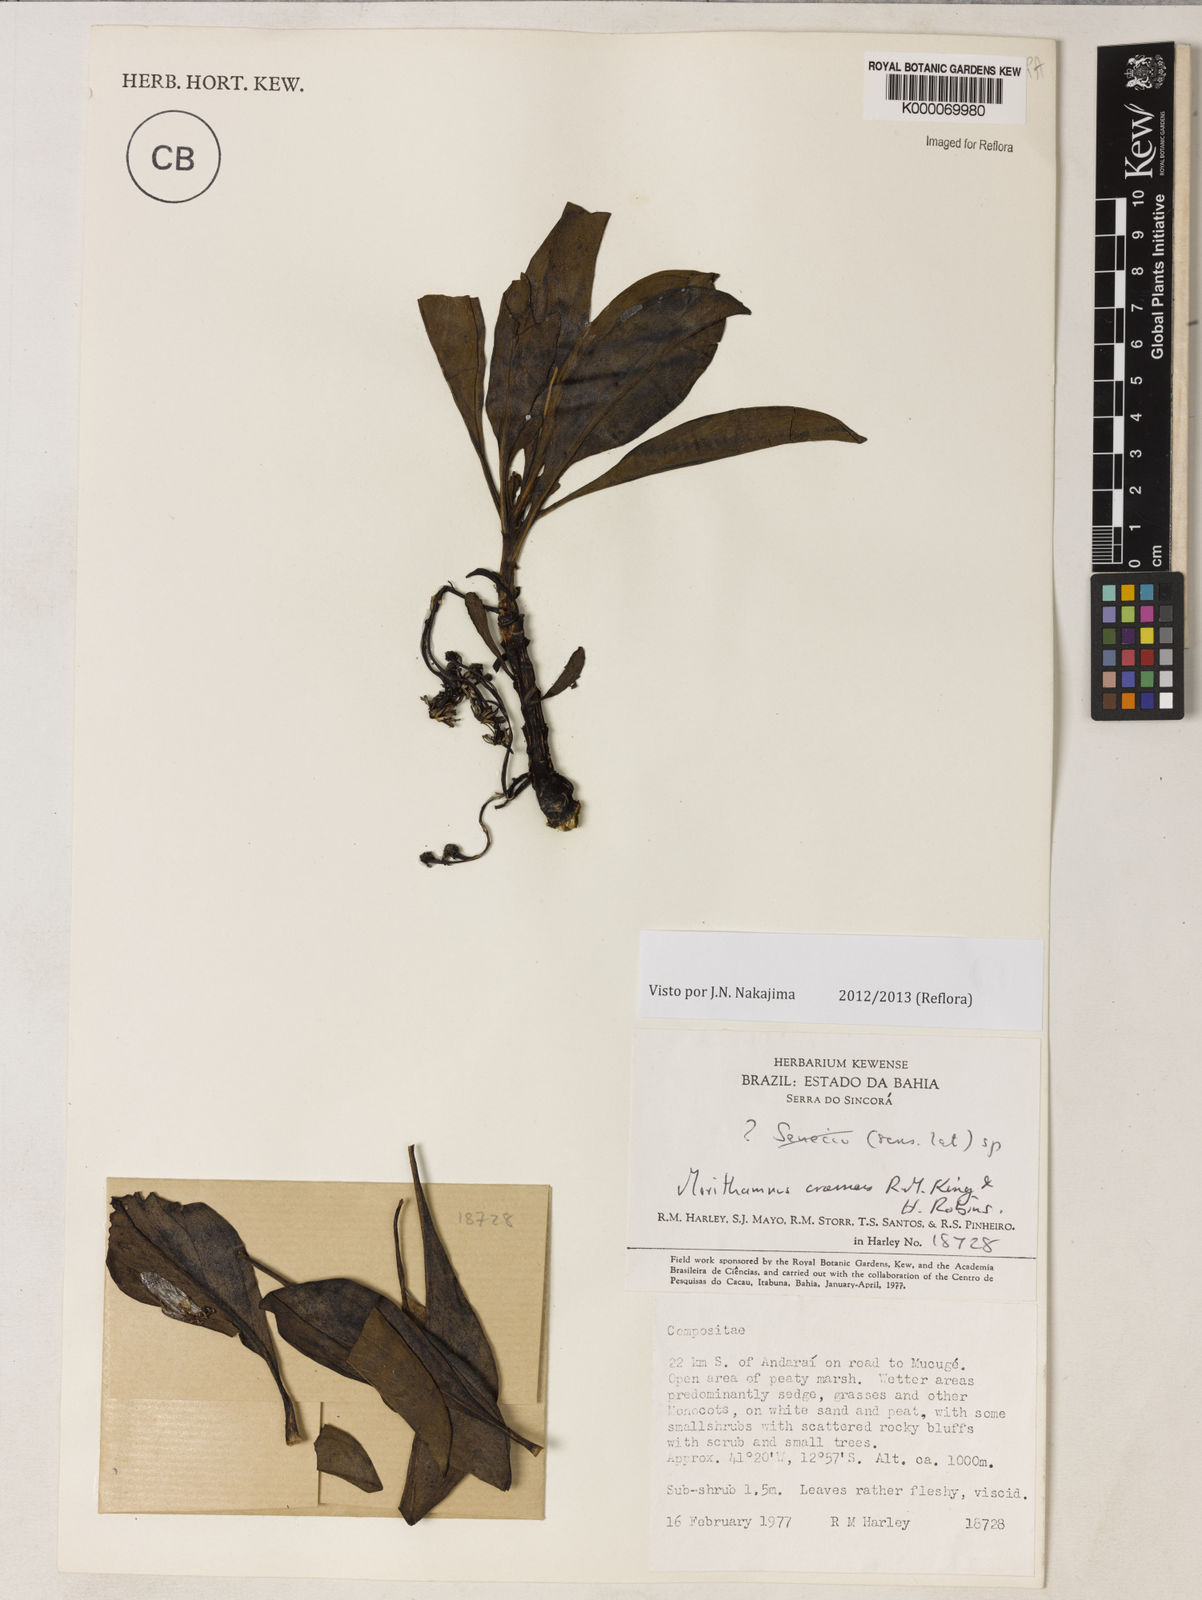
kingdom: Plantae
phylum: Tracheophyta
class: Magnoliopsida
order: Asterales
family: Asteraceae
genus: Morithamnus
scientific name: Morithamnus crassus
